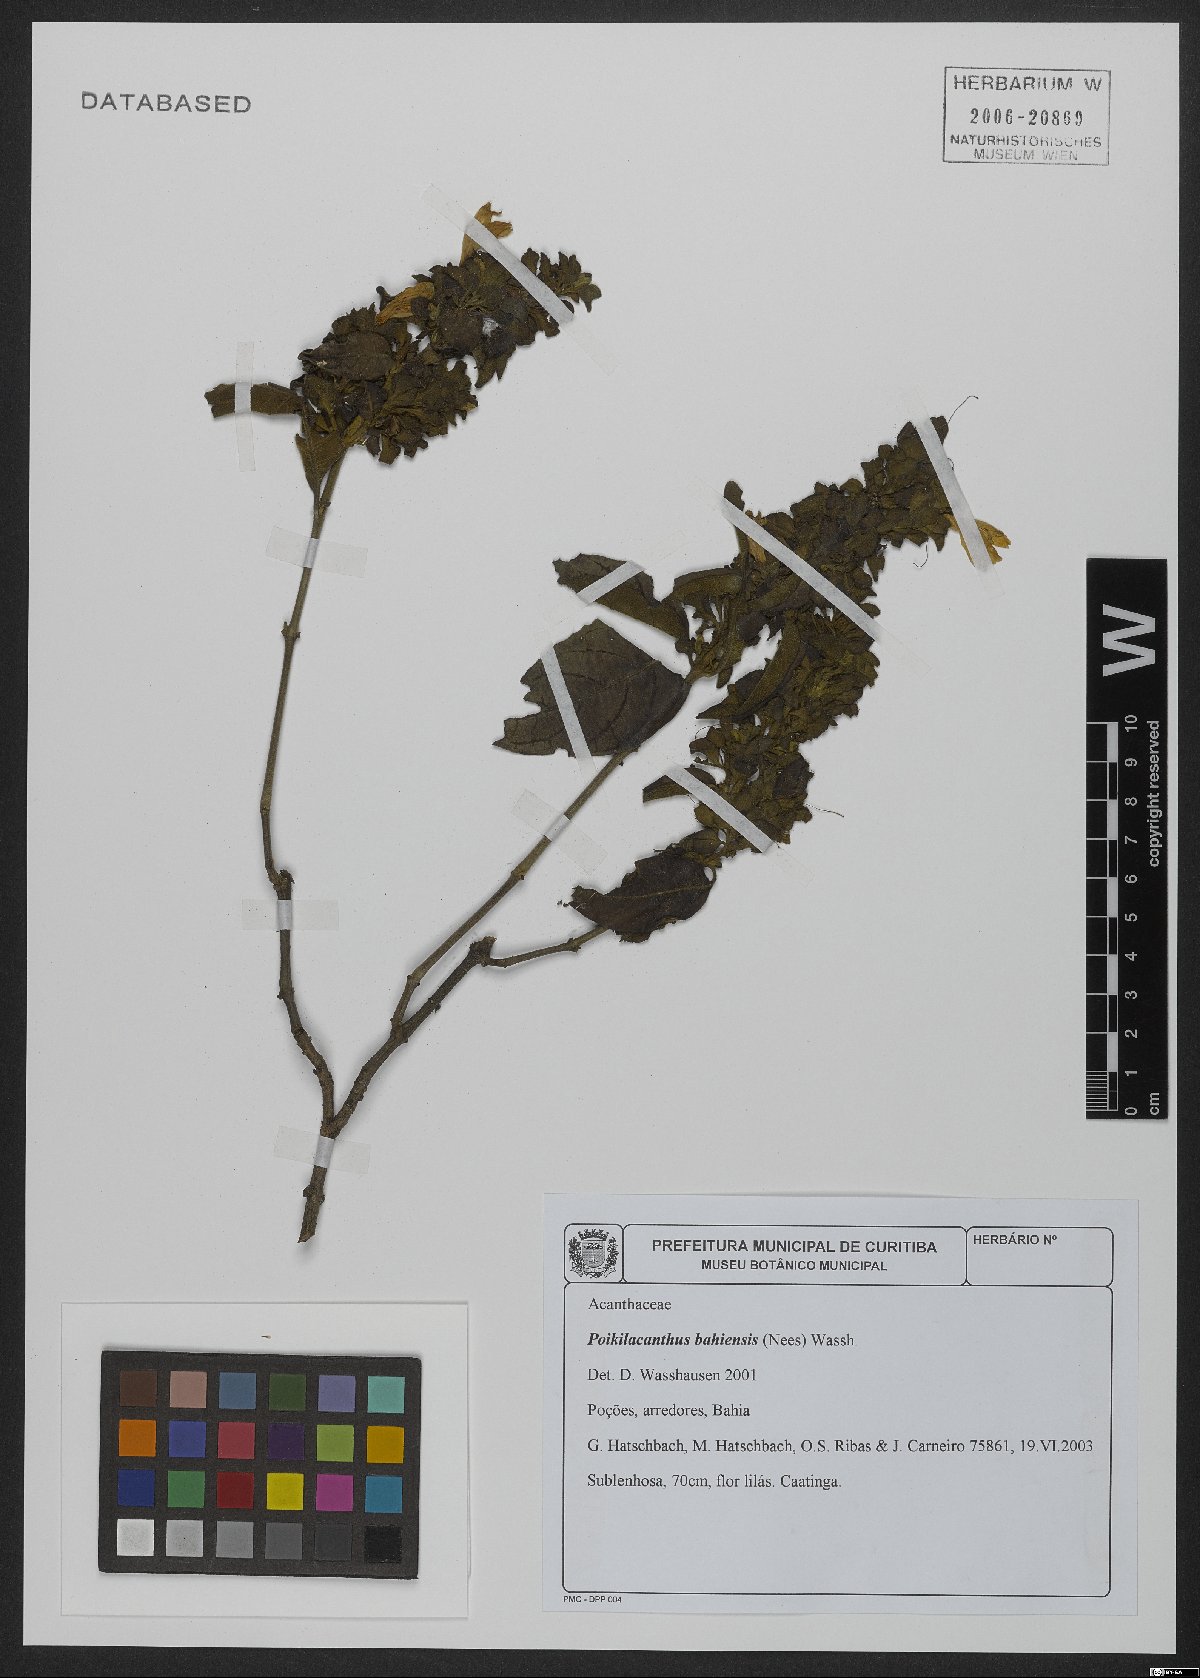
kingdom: Plantae
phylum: Tracheophyta
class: Magnoliopsida
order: Lamiales
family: Acanthaceae
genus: Poikilacanthus
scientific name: Poikilacanthus bahiensis
